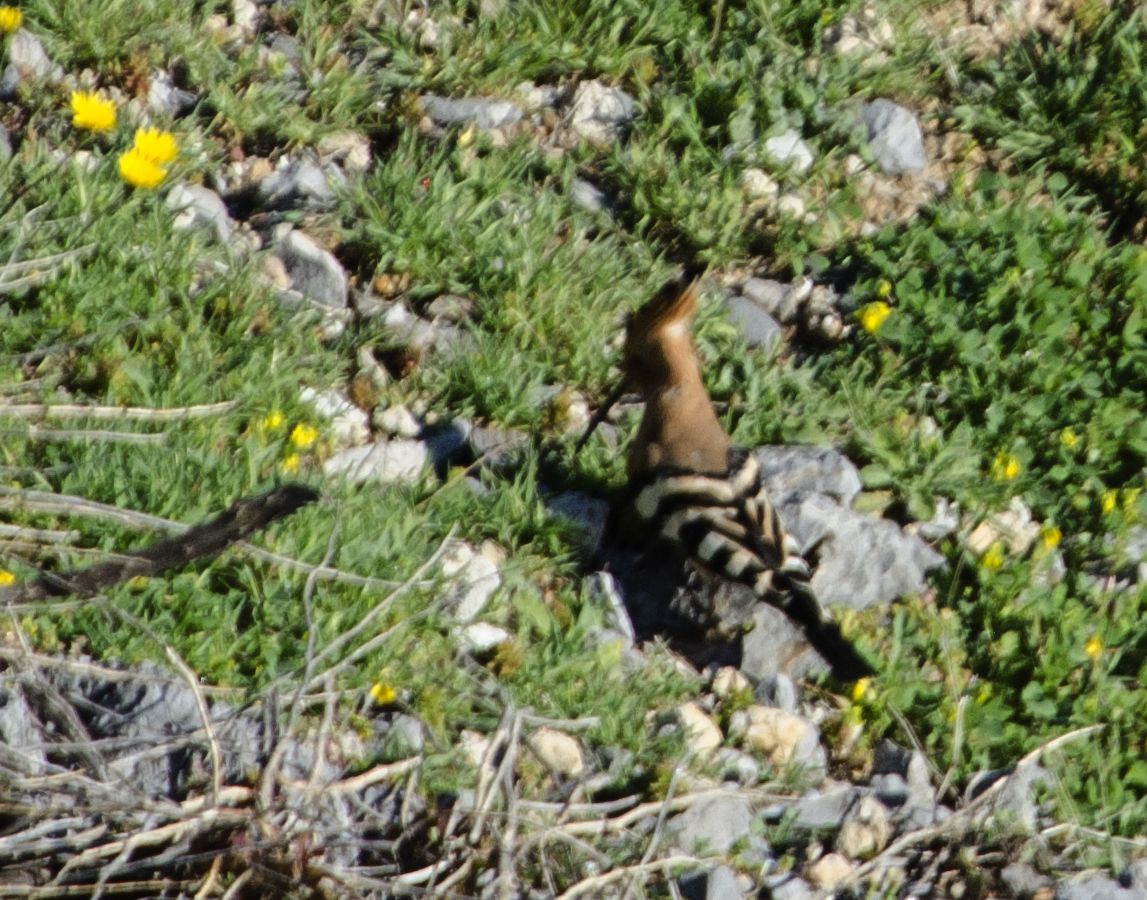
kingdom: Animalia
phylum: Chordata
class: Aves
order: Bucerotiformes
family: Upupidae
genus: Upupa
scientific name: Upupa epops
